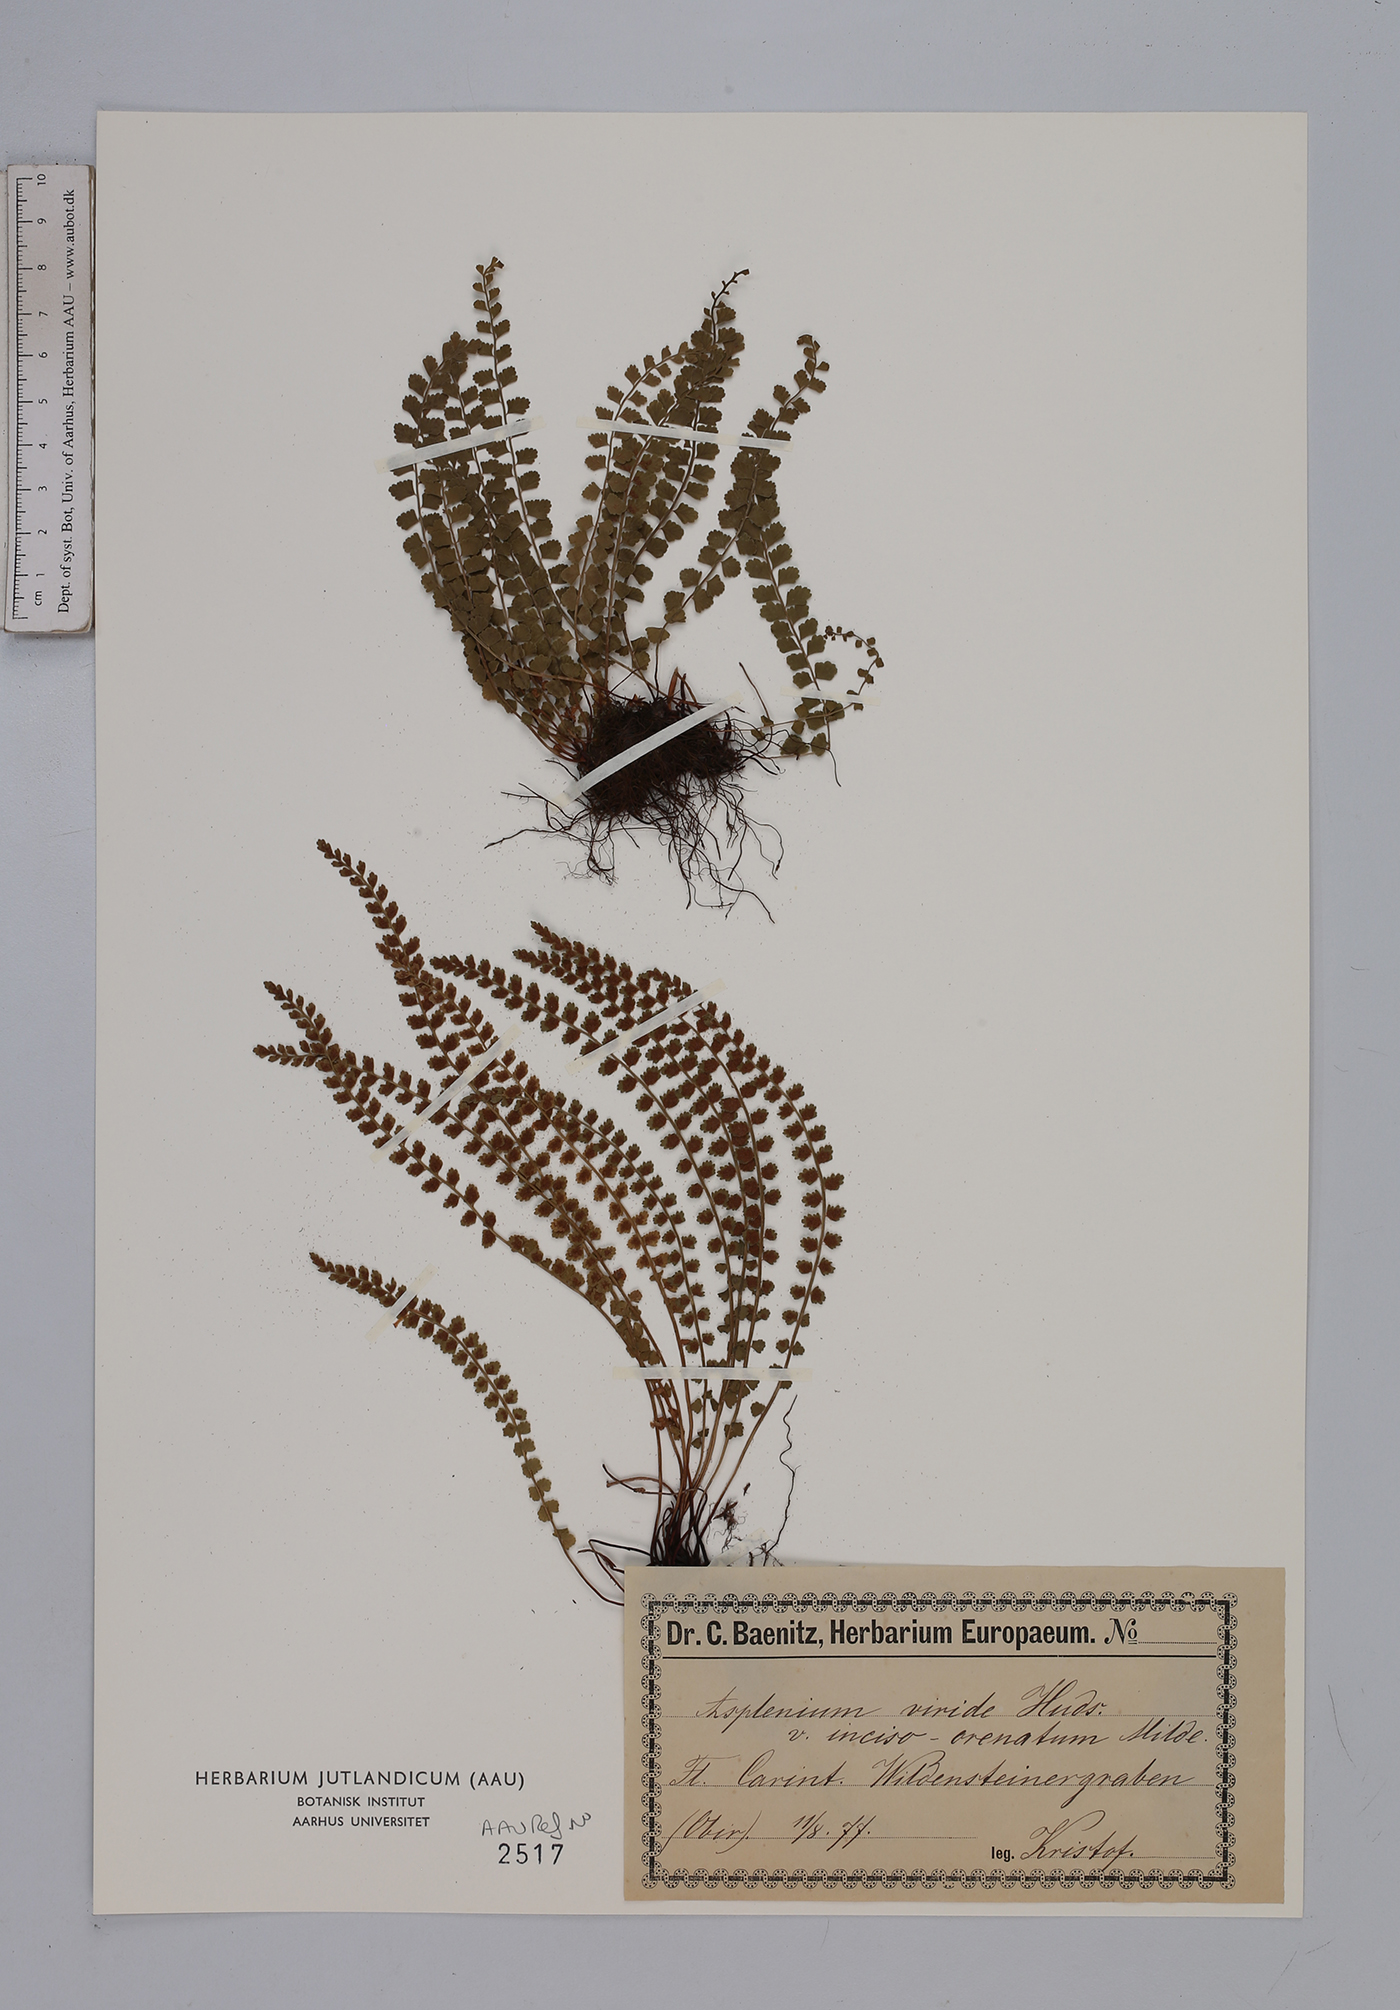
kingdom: Plantae
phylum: Tracheophyta
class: Polypodiopsida
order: Polypodiales
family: Aspleniaceae
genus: Asplenium
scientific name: Asplenium viride
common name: Green spleenwort
